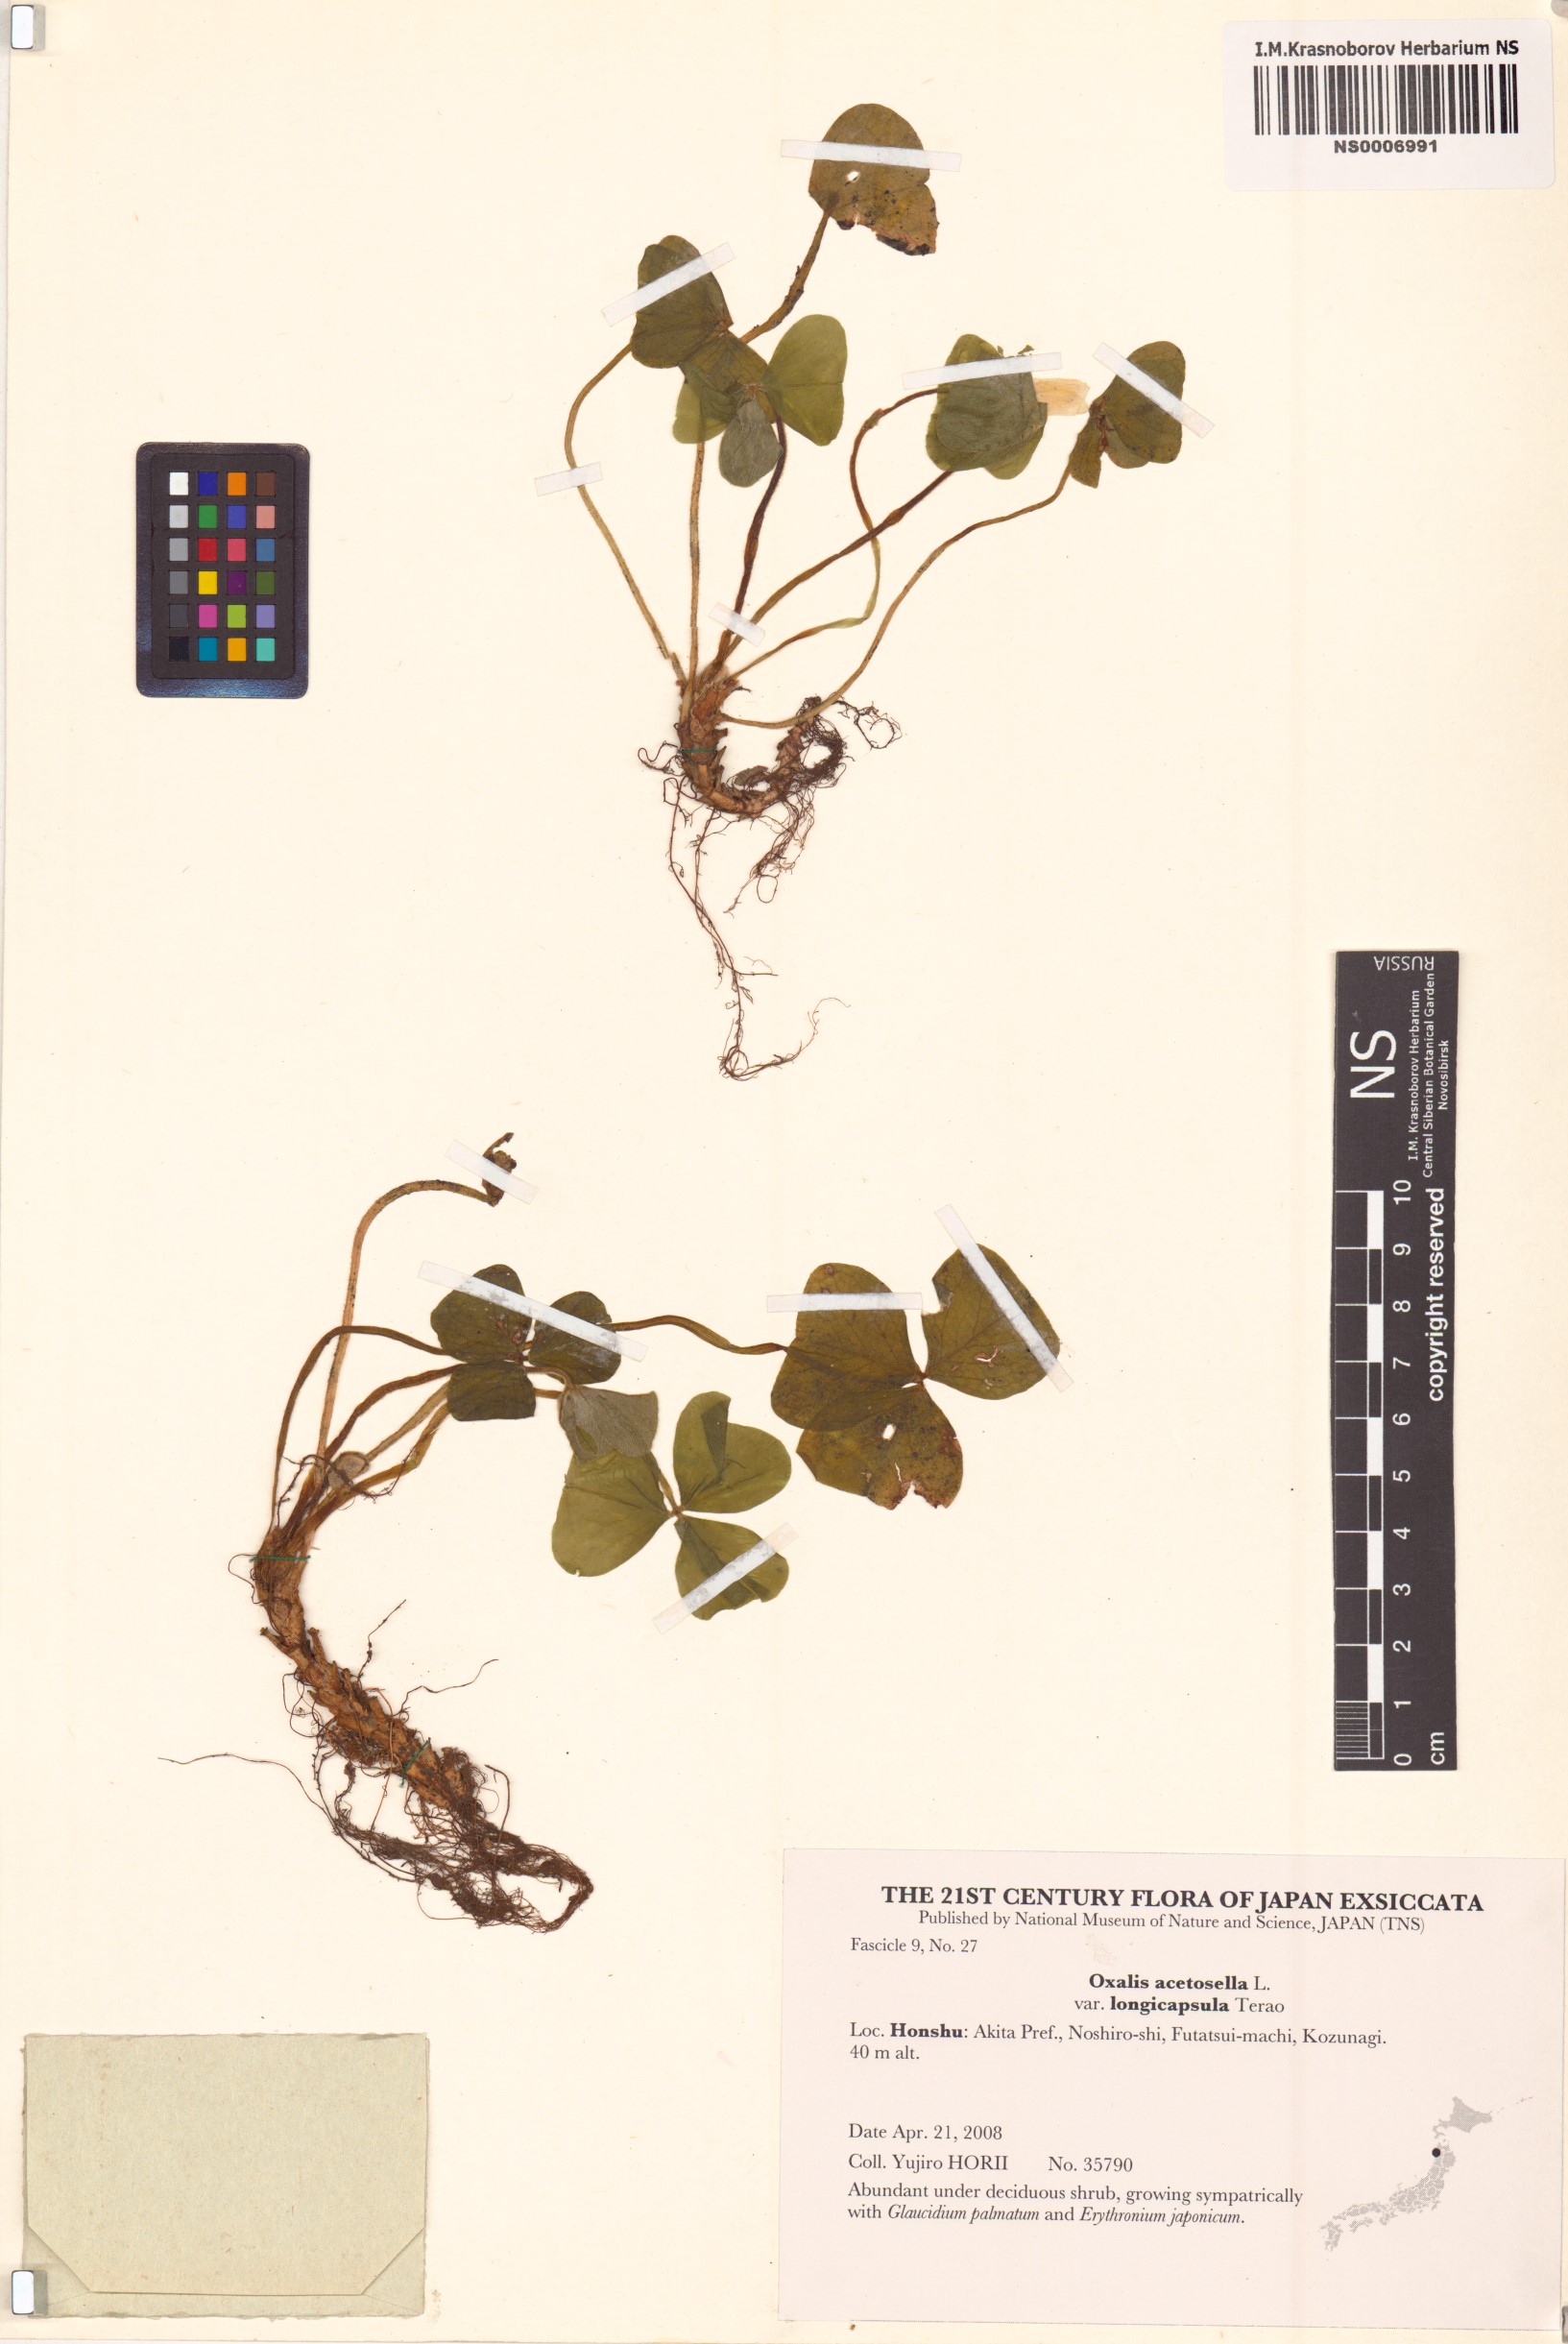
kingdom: Plantae
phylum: Tracheophyta
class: Magnoliopsida
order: Oxalidales
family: Oxalidaceae
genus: Oxalis
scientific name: Oxalis nipponica
